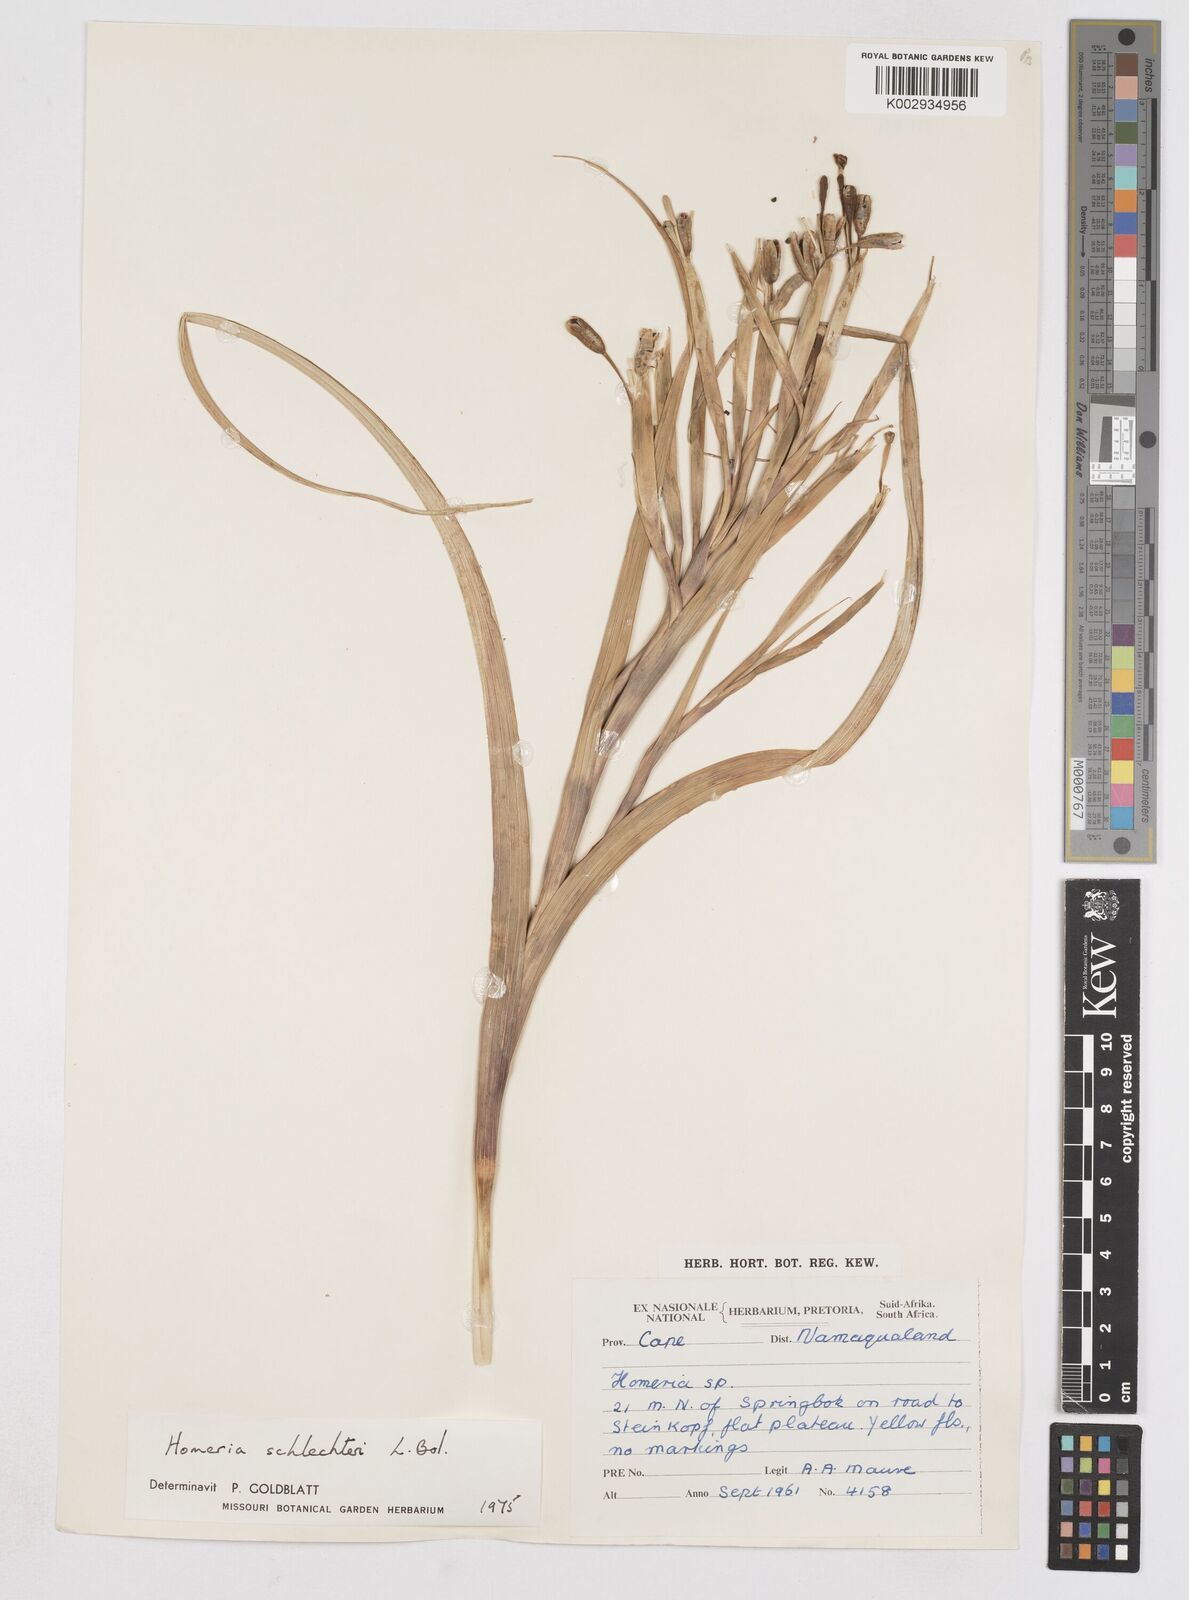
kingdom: Plantae
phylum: Tracheophyta
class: Liliopsida
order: Asparagales
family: Iridaceae
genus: Moraea
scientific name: Moraea schlechteri
